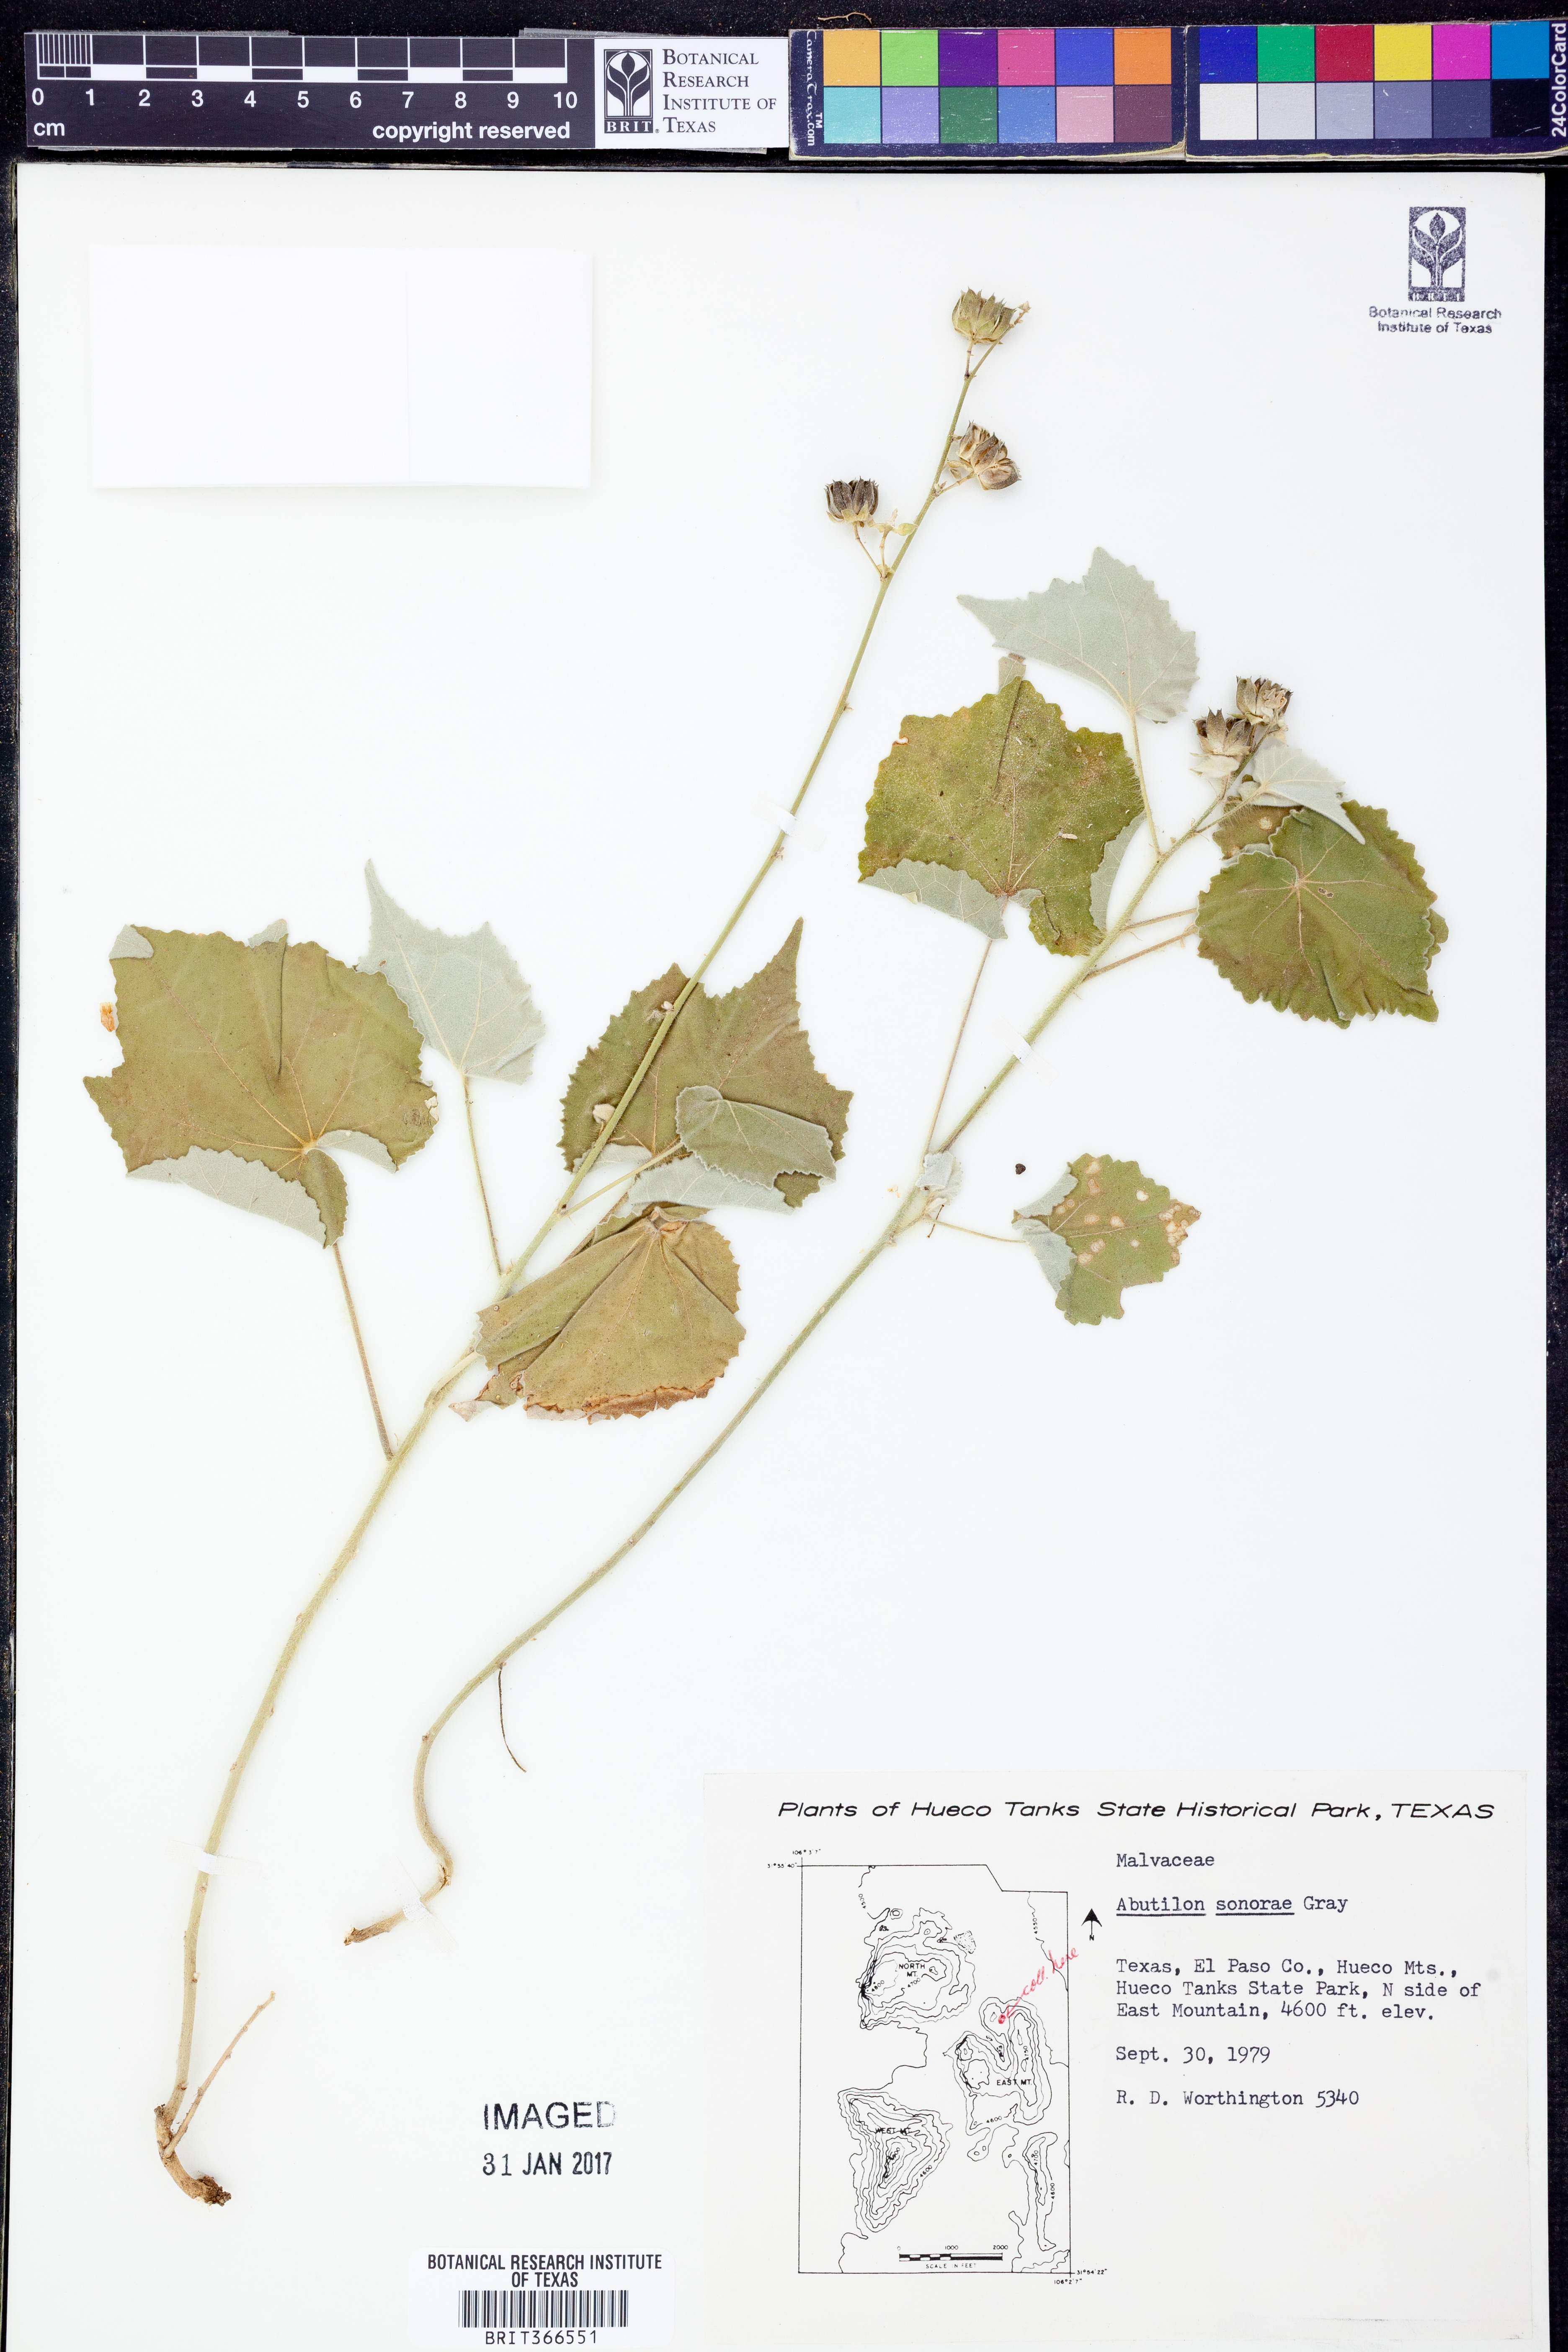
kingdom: Plantae
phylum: Tracheophyta
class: Magnoliopsida
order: Malvales
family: Malvaceae
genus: Abutilon
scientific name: Abutilon mollicomum
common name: Sonoran indian-mallow
